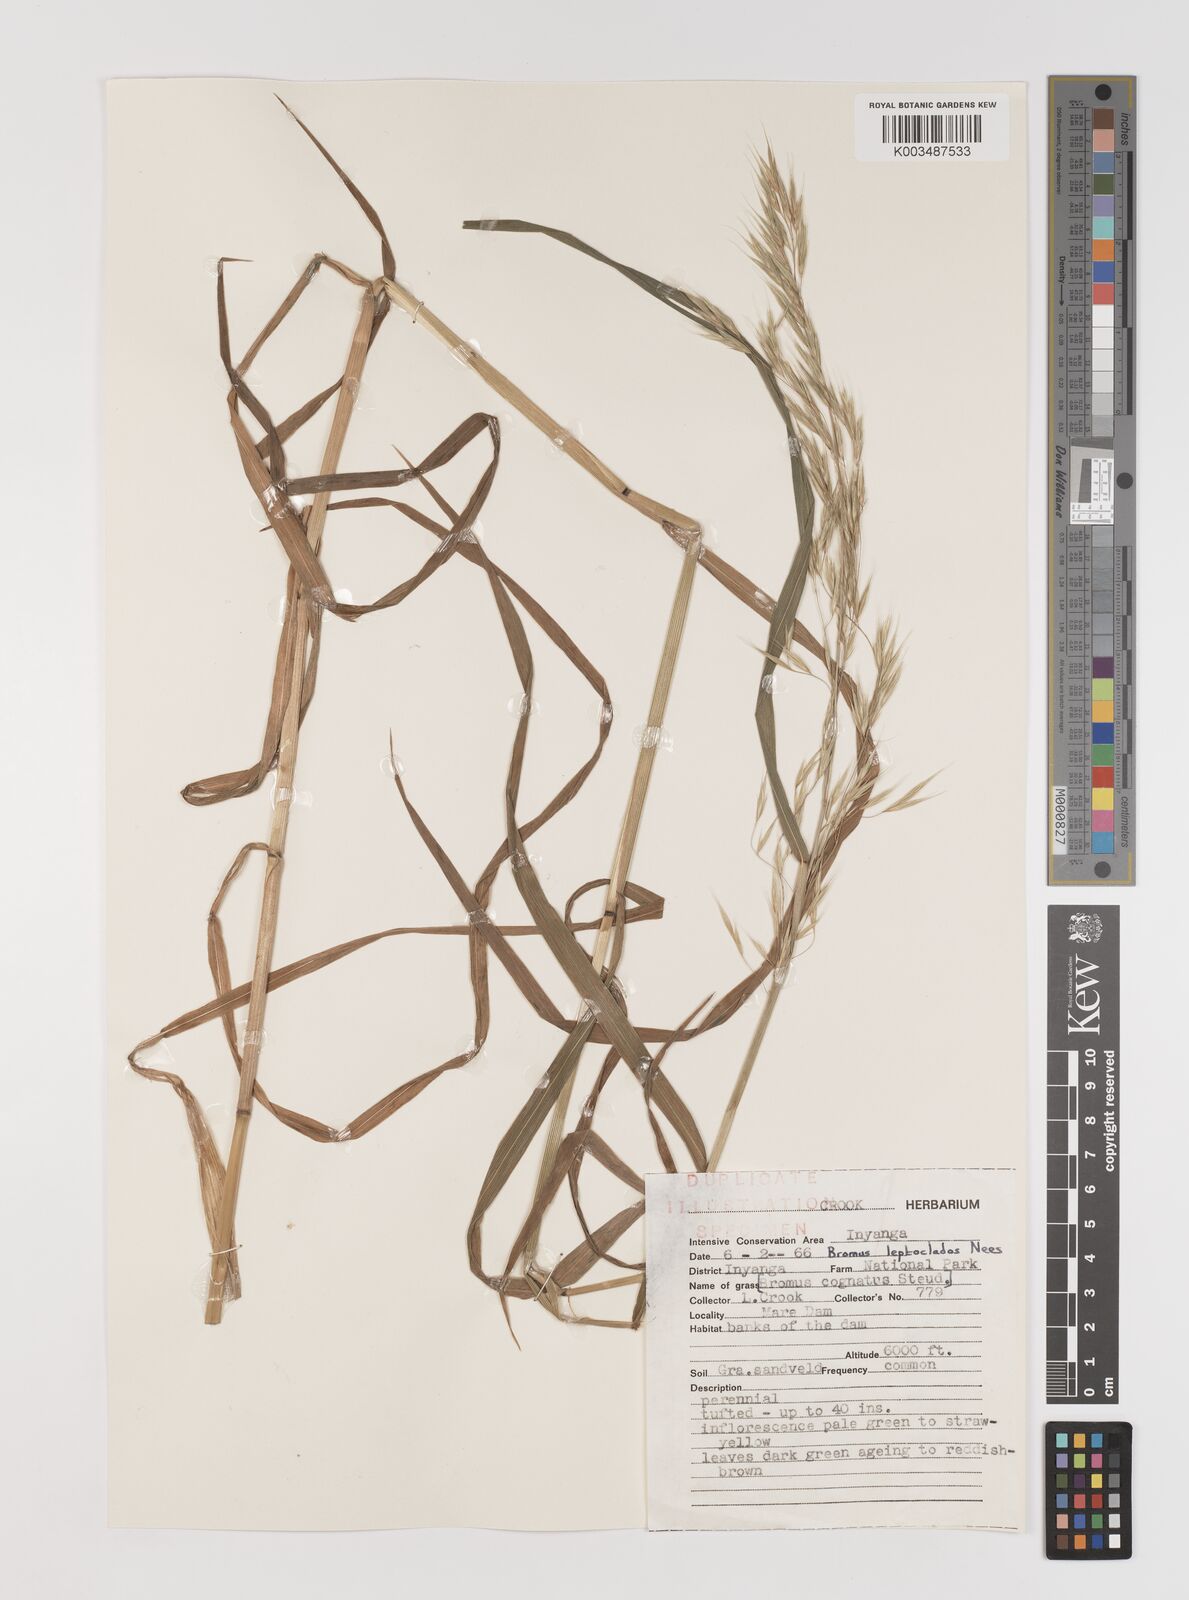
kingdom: Plantae
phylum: Tracheophyta
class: Liliopsida
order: Poales
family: Poaceae
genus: Bromus
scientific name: Bromus leptoclados
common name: Mountain bromegrass
